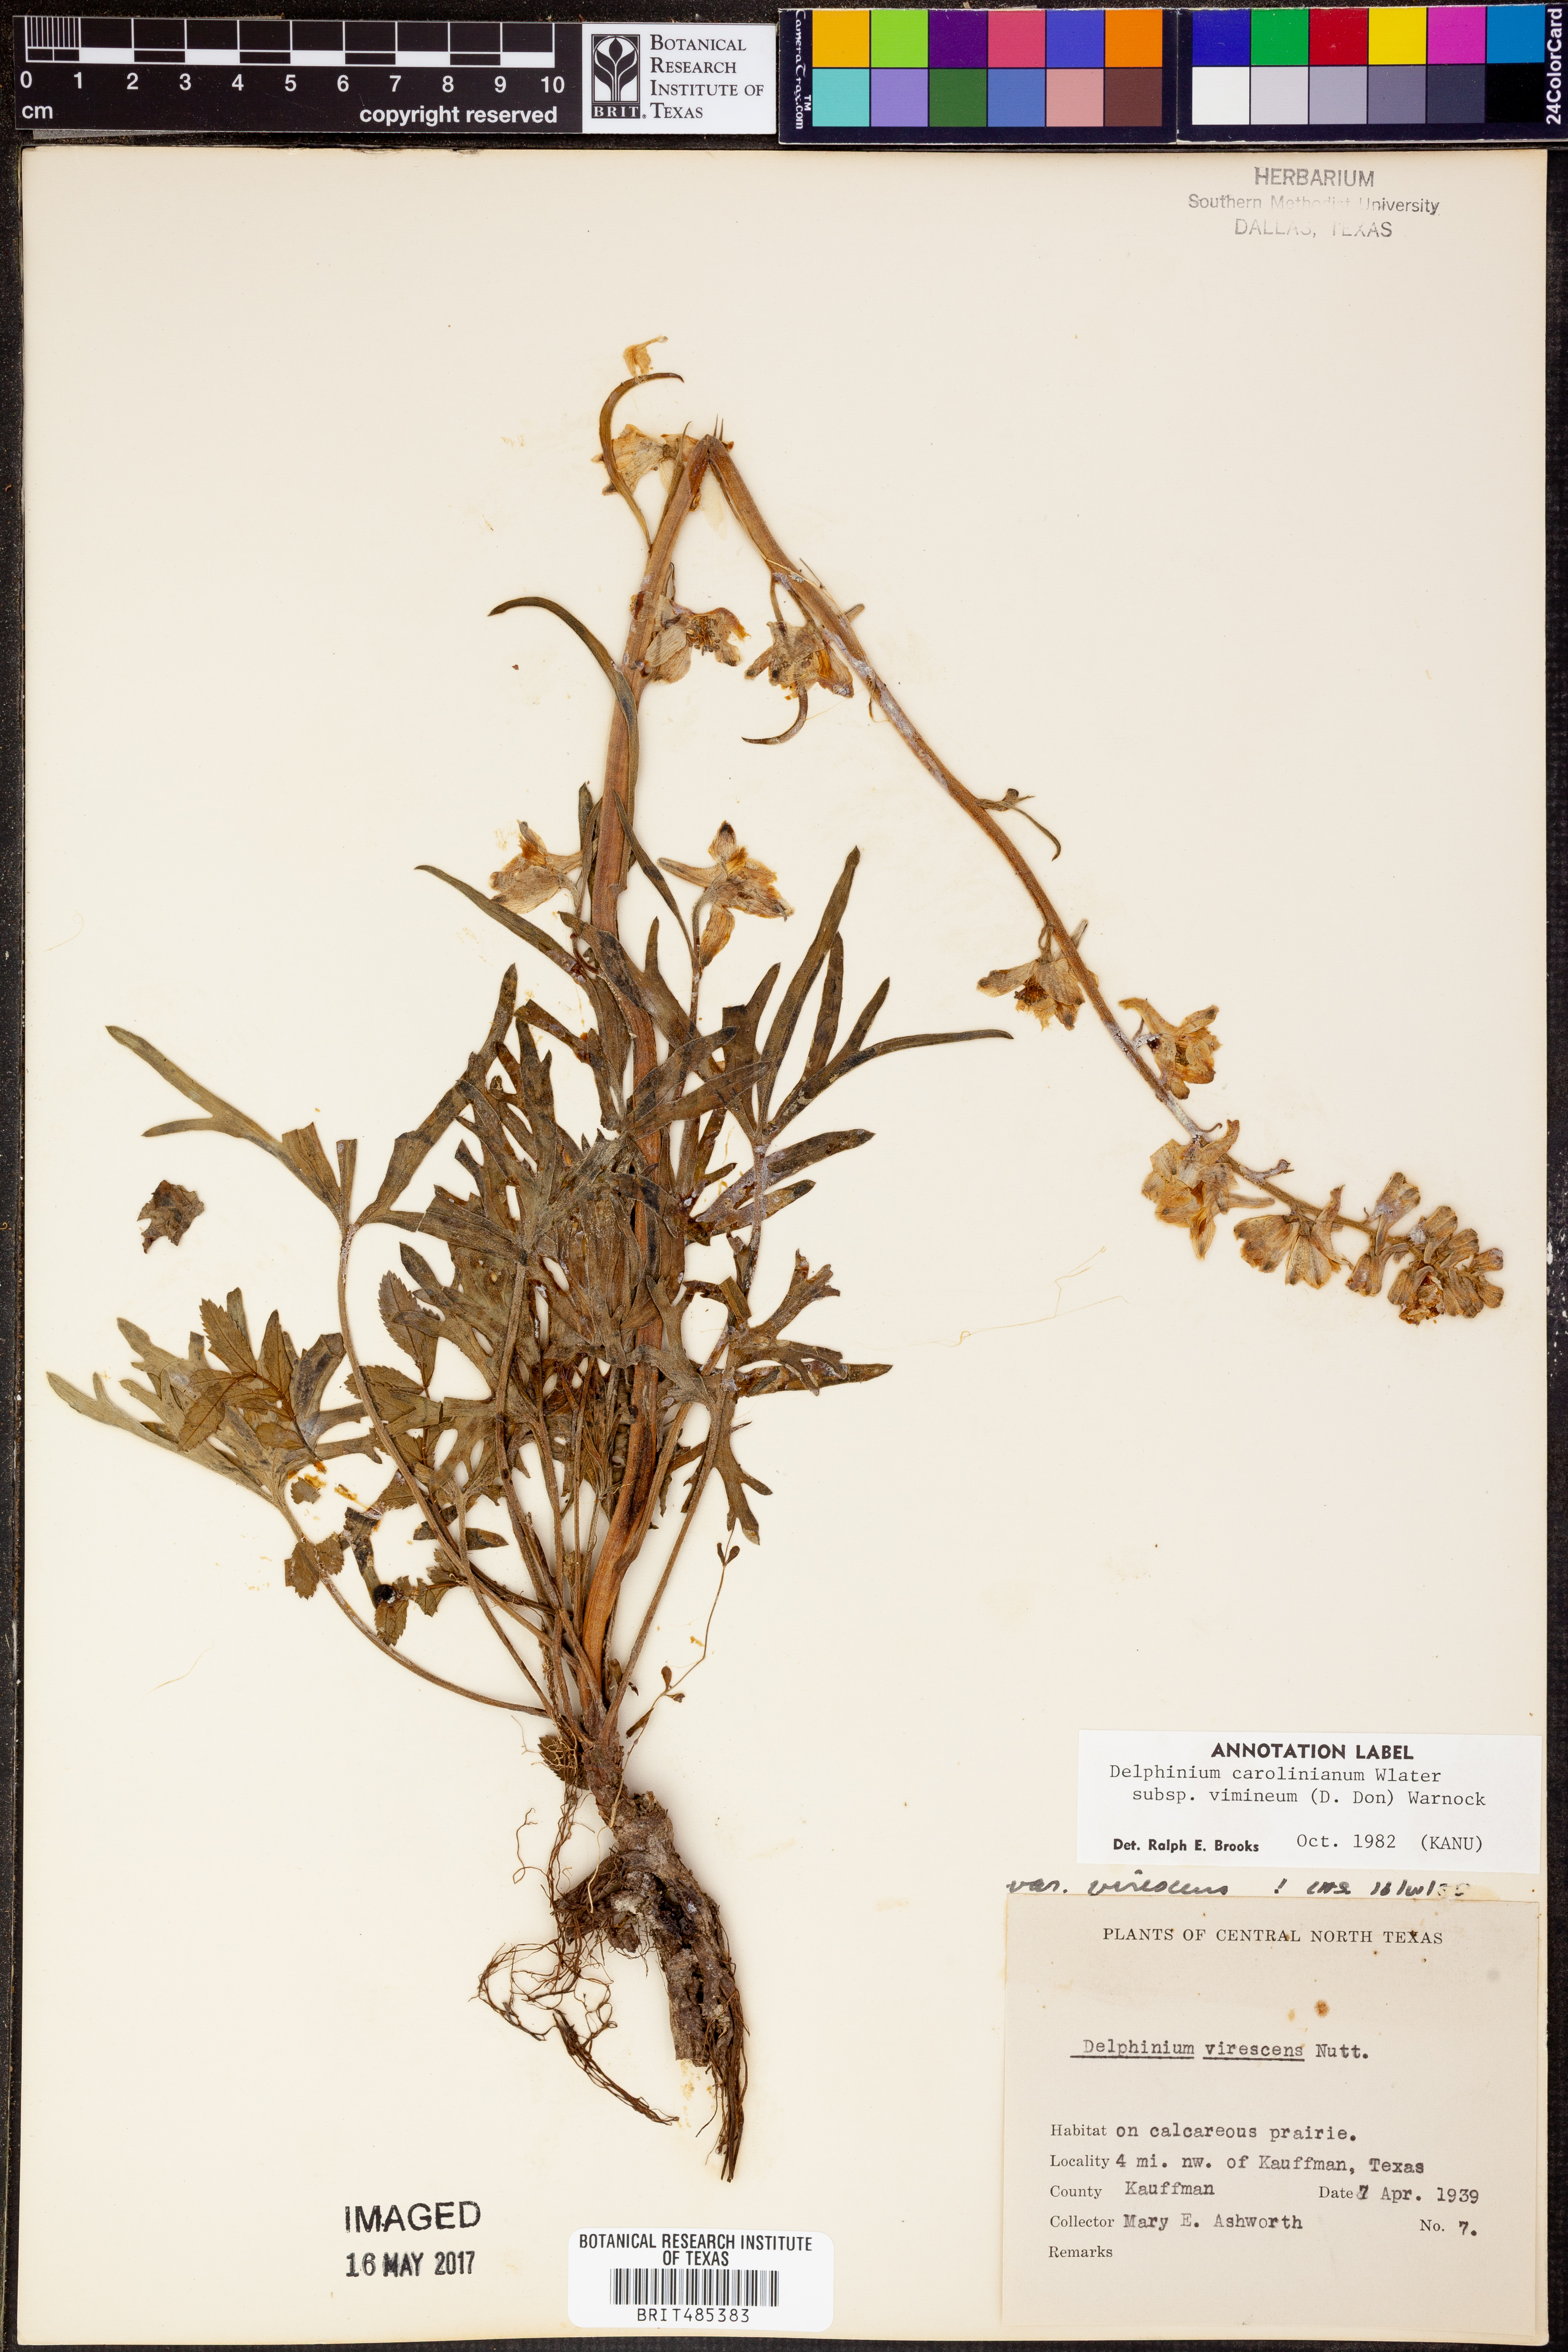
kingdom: Plantae
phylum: Tracheophyta
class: Magnoliopsida
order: Ranunculales
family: Ranunculaceae
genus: Delphinium
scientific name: Delphinium carolinianum
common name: Carolina larkspur
